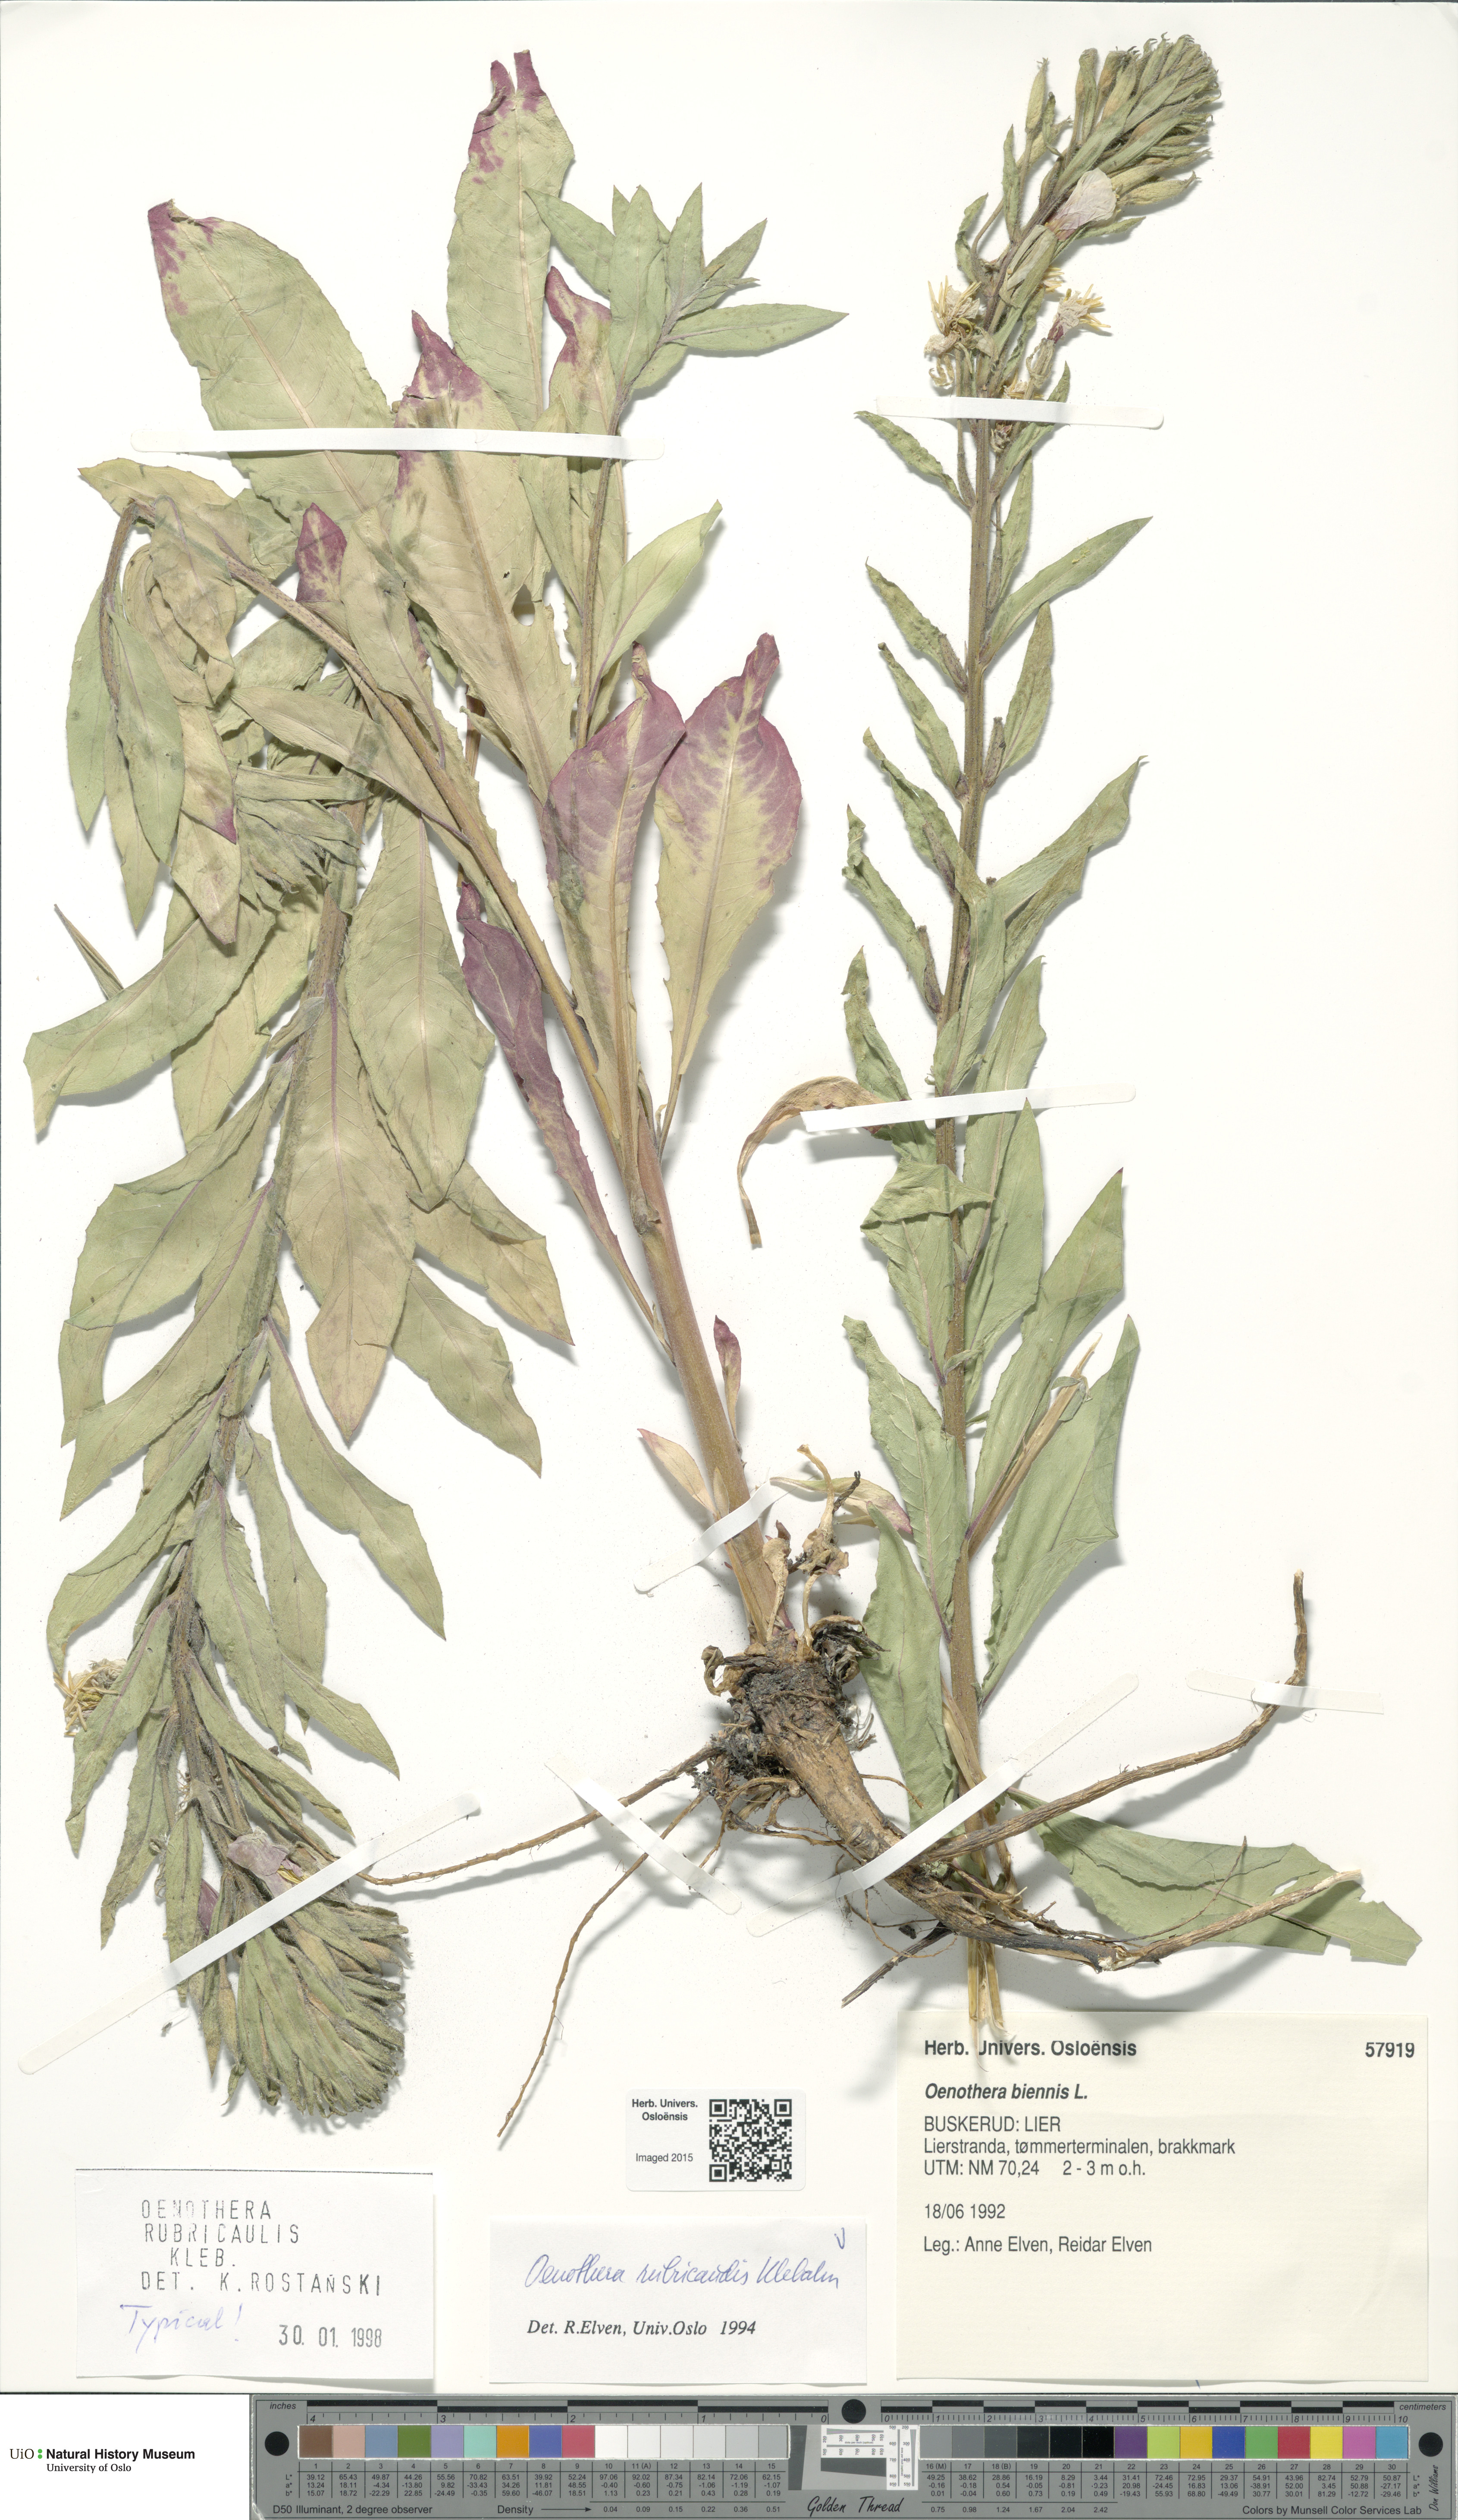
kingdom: Plantae
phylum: Tracheophyta
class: Magnoliopsida
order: Myrtales
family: Onagraceae
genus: Oenothera
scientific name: Oenothera biennis
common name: Common evening-primrose
